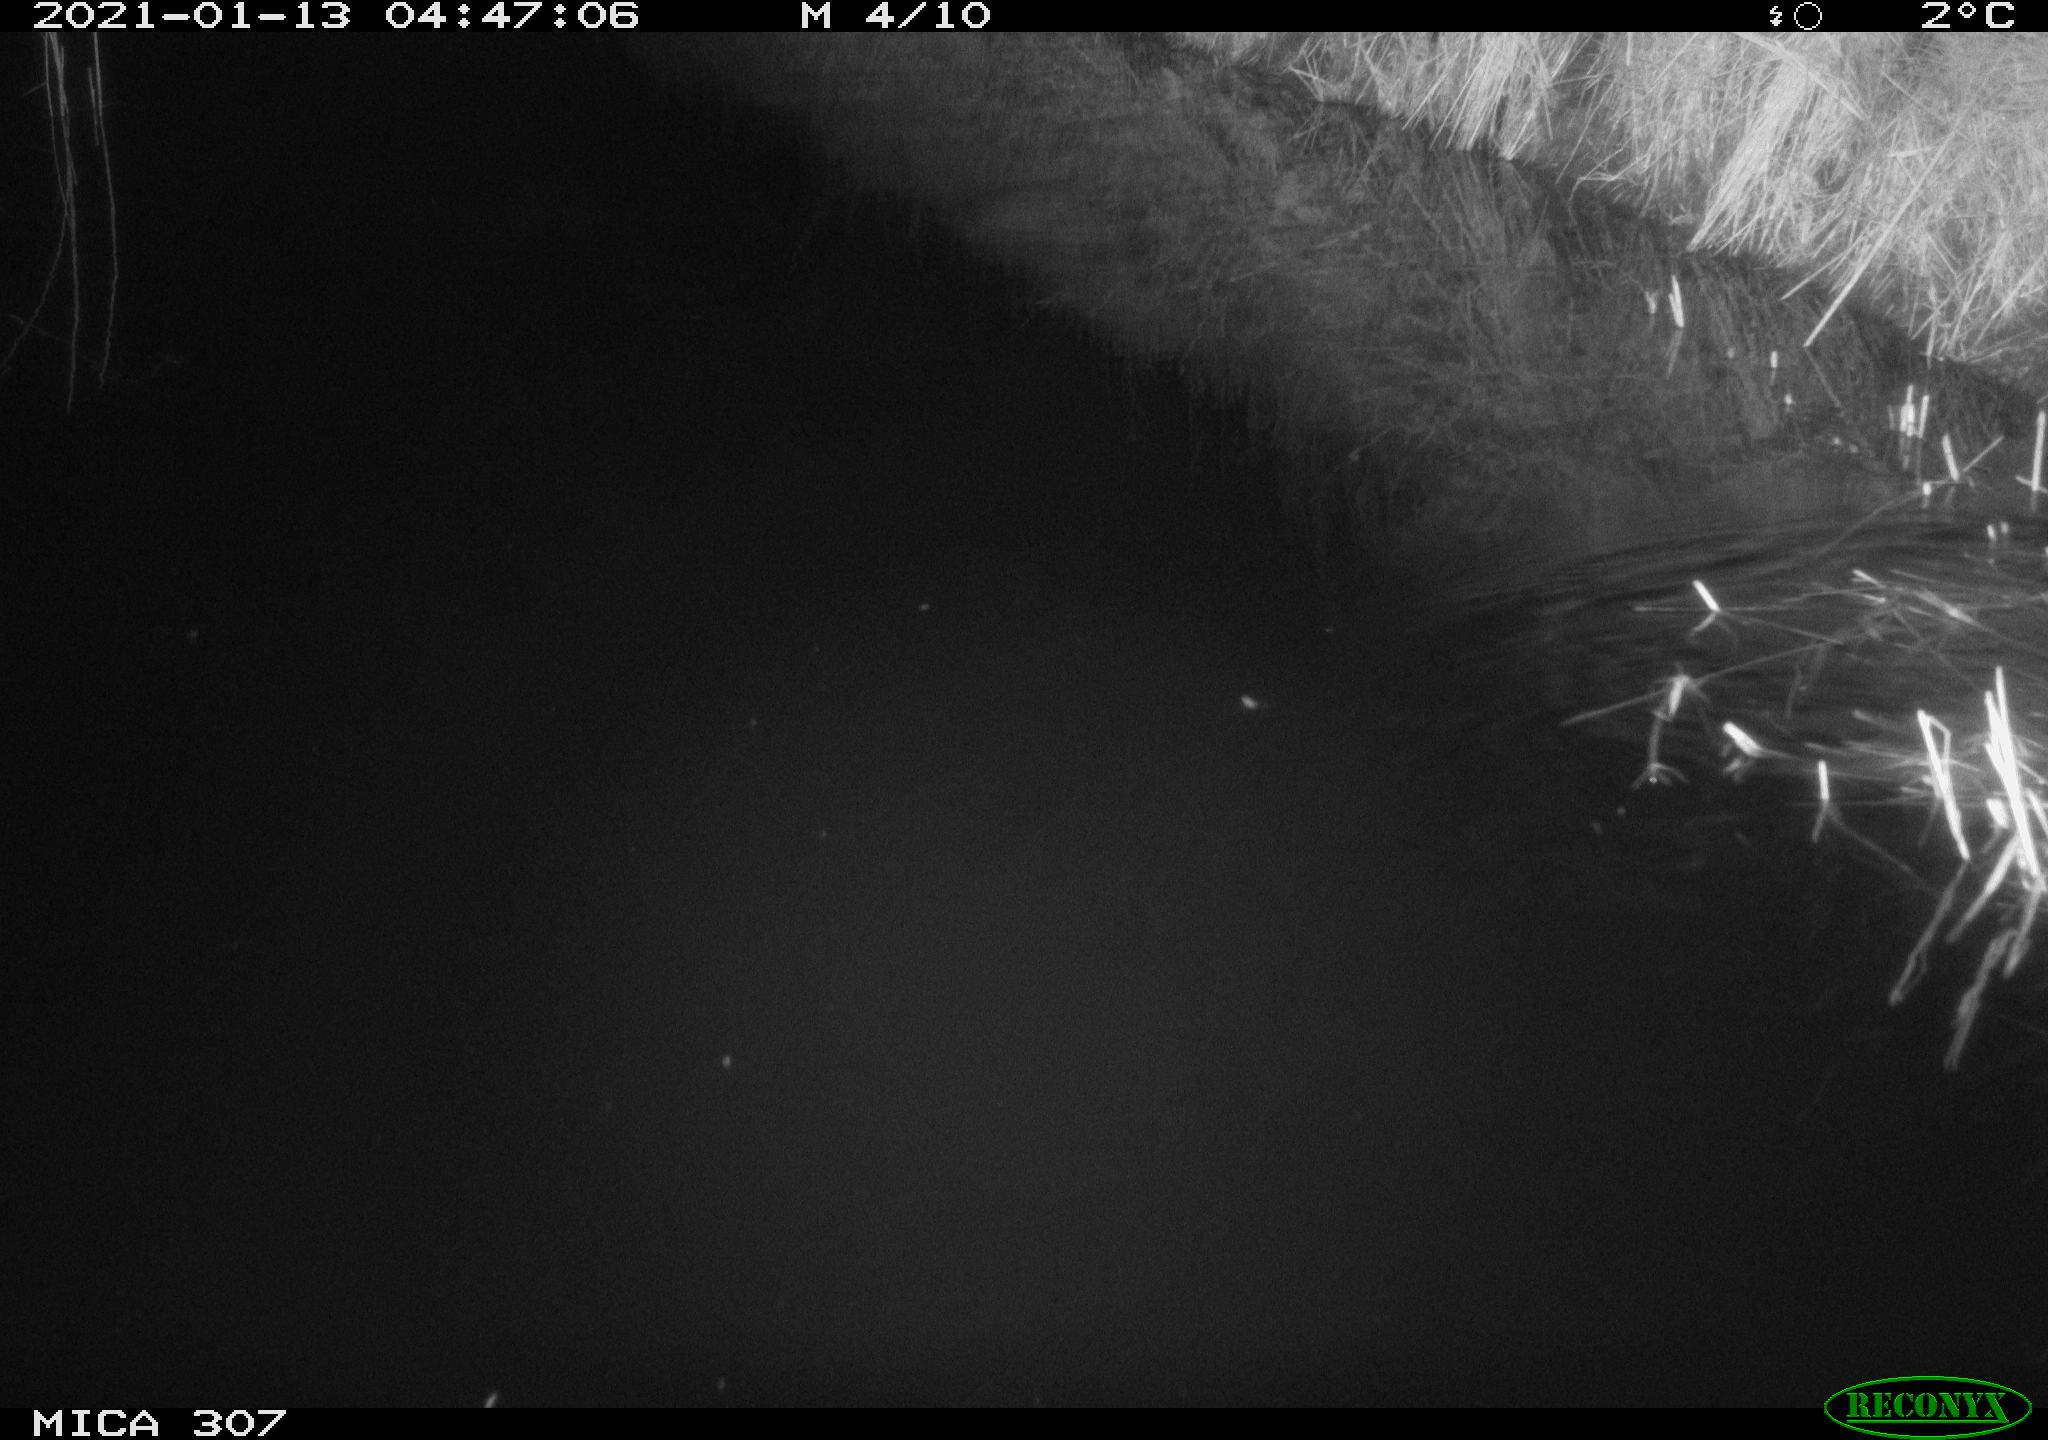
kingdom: Animalia
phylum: Chordata
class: Mammalia
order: Rodentia
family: Muridae
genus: Rattus
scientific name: Rattus norvegicus
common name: Brown rat
